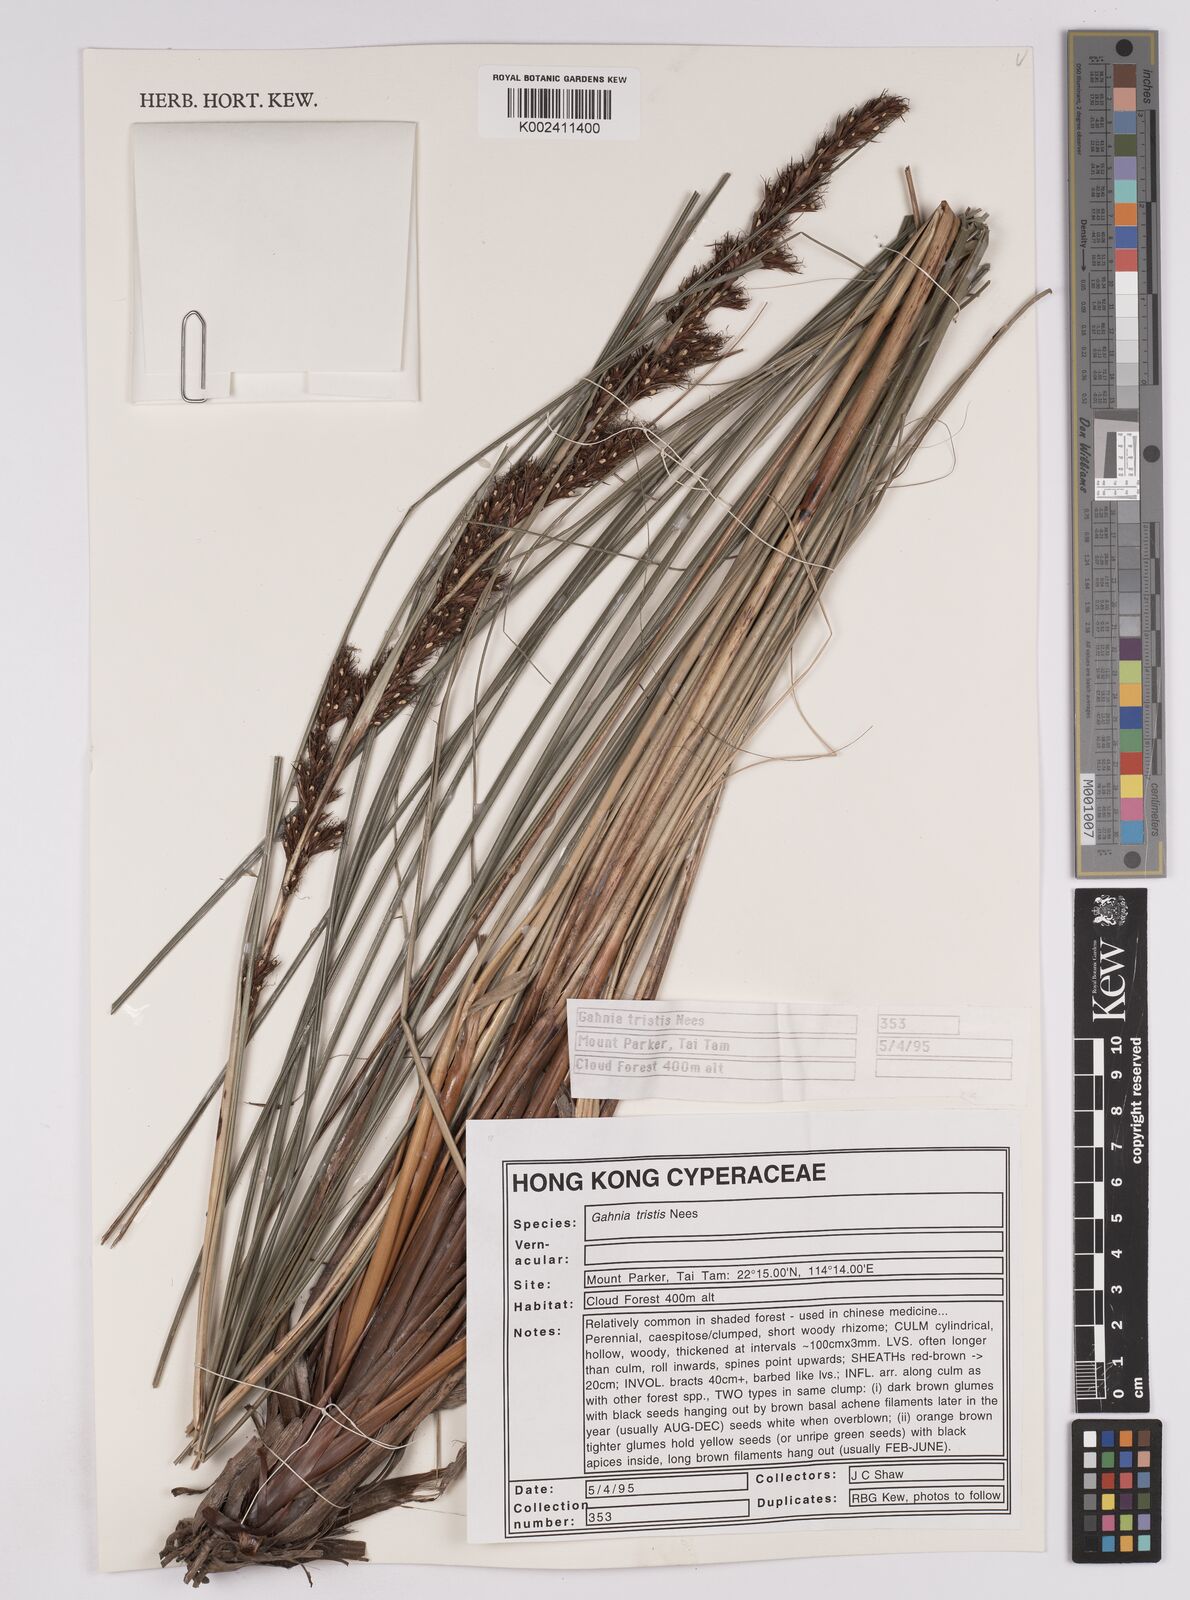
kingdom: Plantae
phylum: Tracheophyta
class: Liliopsida
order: Poales
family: Cyperaceae
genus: Gahnia
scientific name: Gahnia tristis
